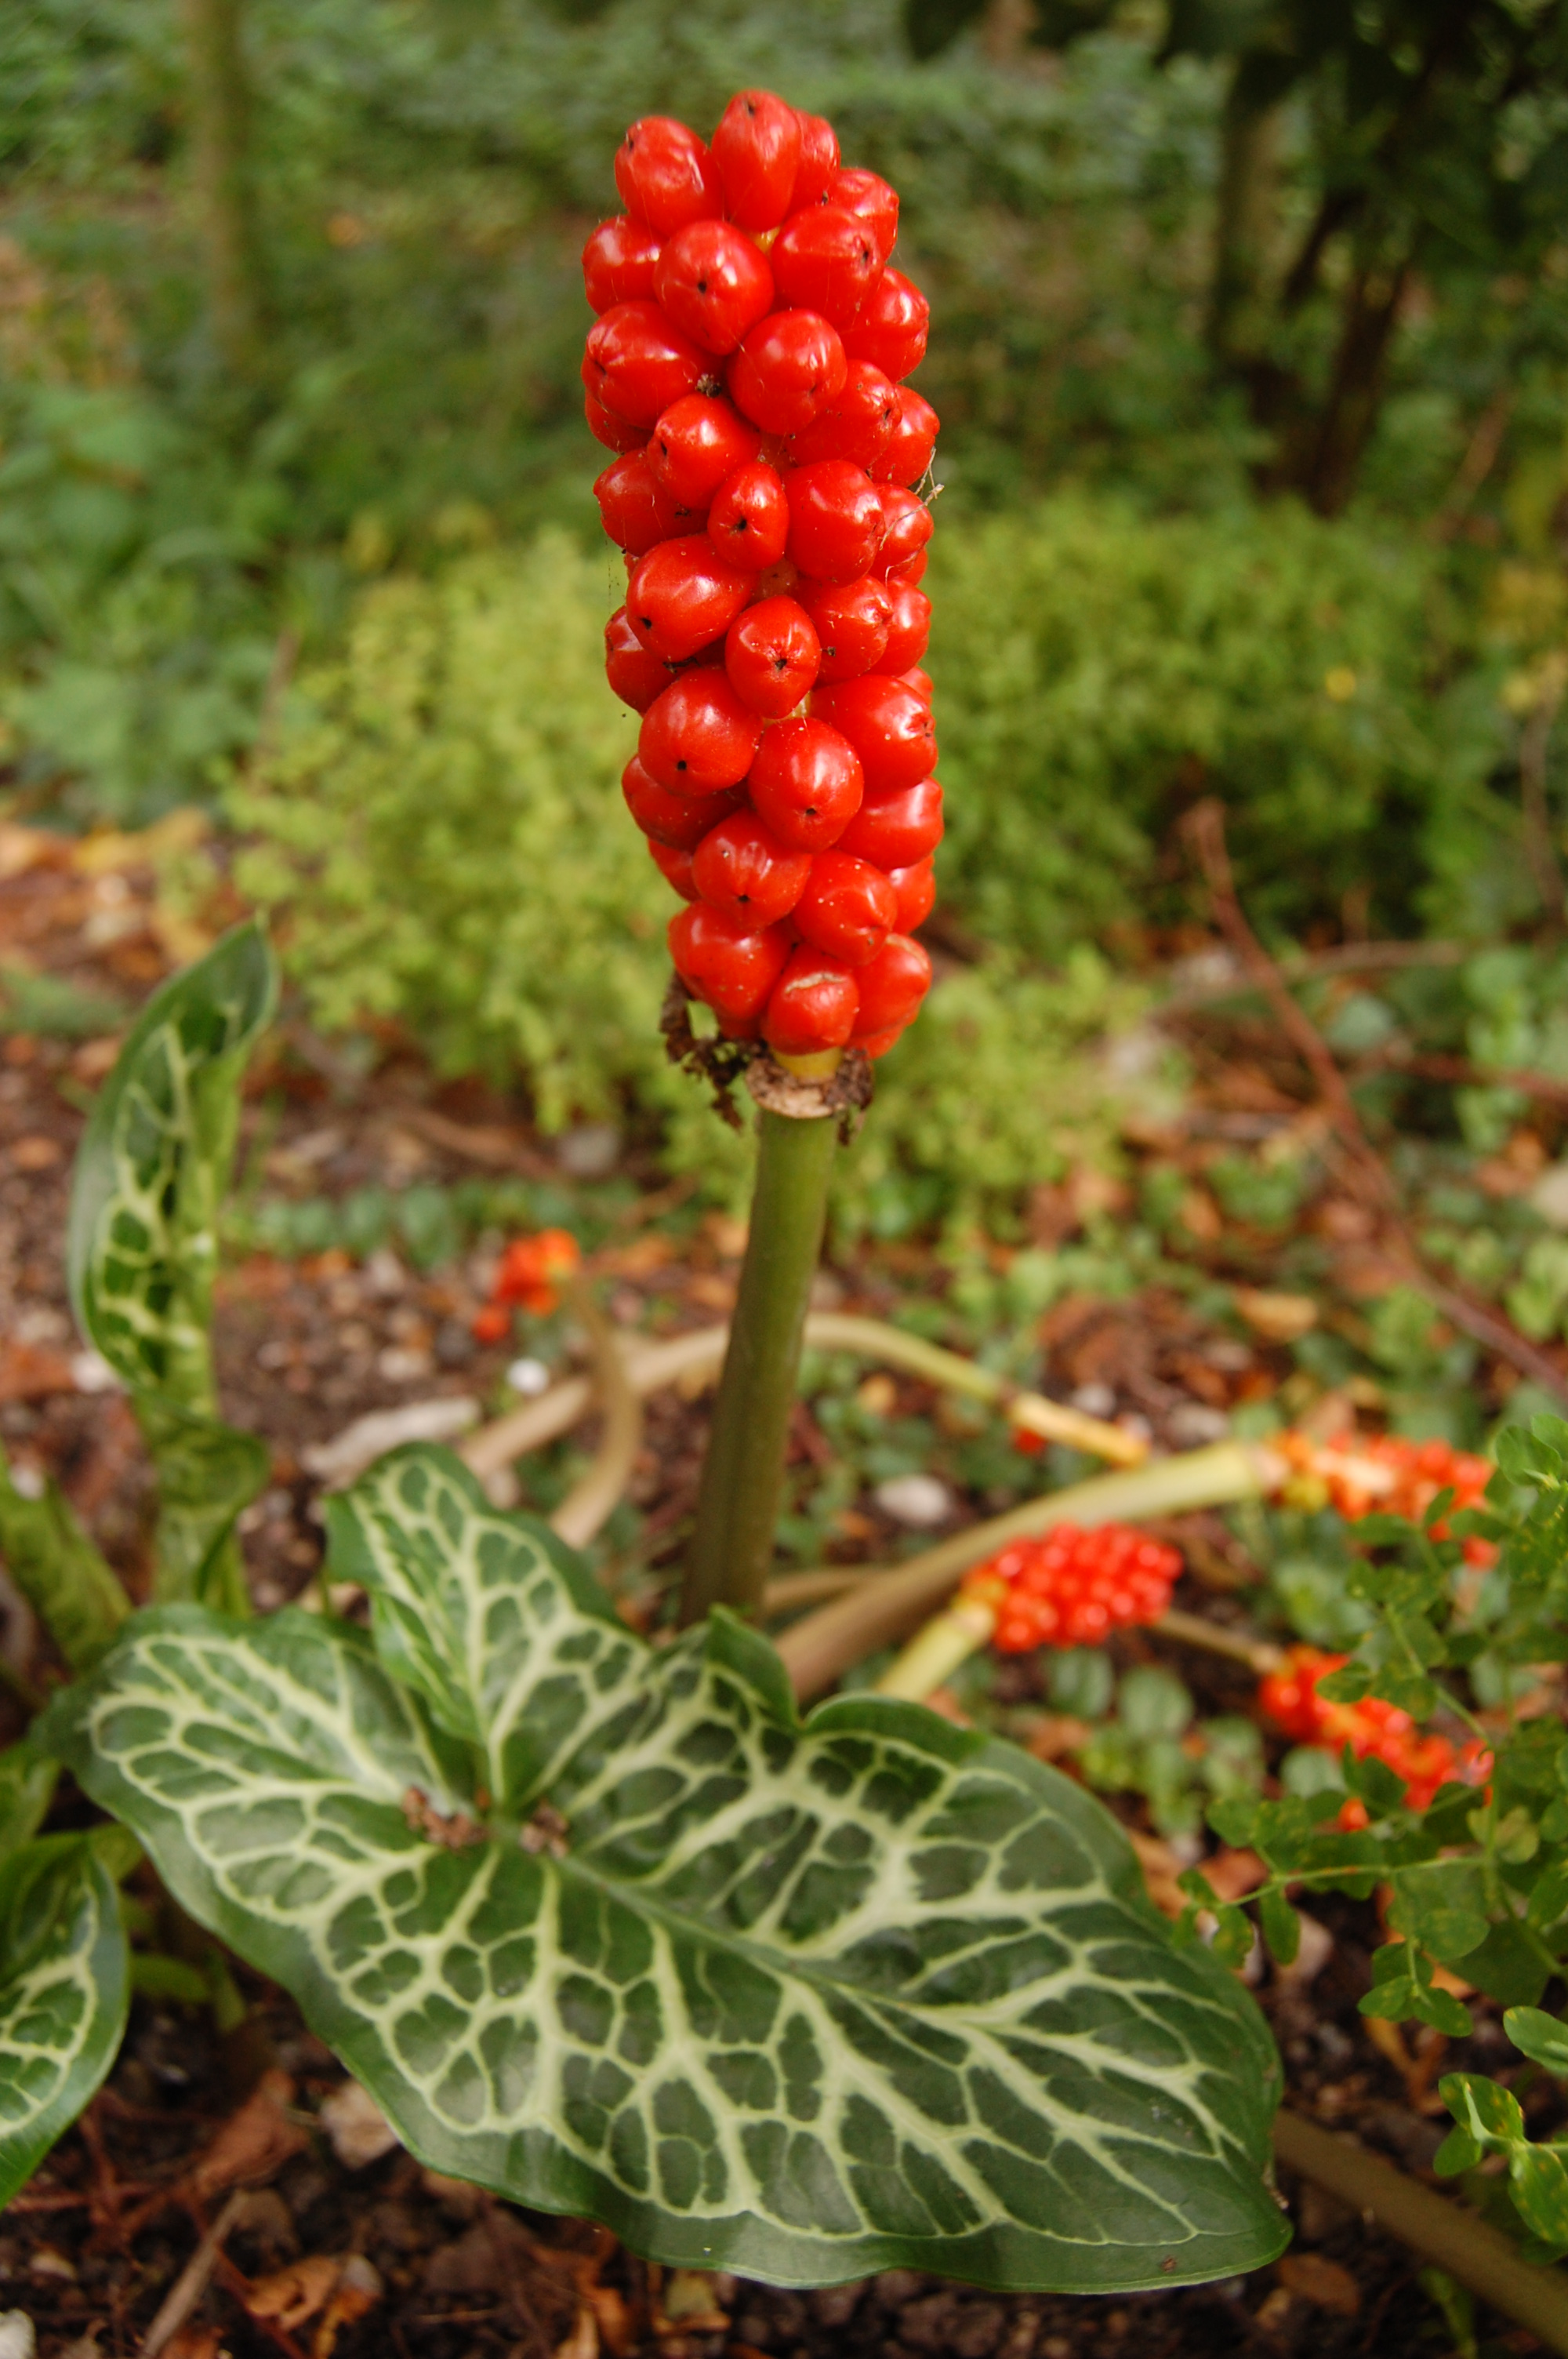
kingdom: Plantae
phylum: Tracheophyta
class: Liliopsida
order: Alismatales
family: Araceae
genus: Arum
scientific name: Arum italicum
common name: Italian lords-and-ladies
